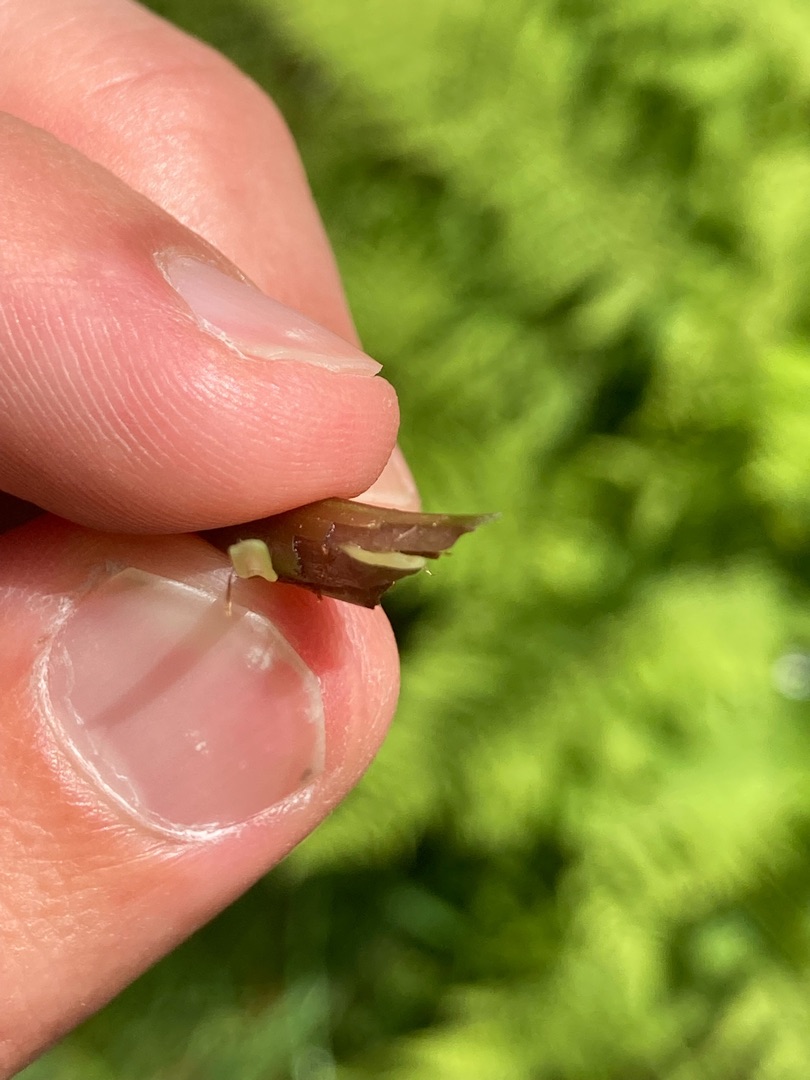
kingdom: Plantae
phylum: Tracheophyta
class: Polypodiopsida
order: Polypodiales
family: Athyriaceae
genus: Athyrium
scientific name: Athyrium filix-femina
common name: Fjerbregne
